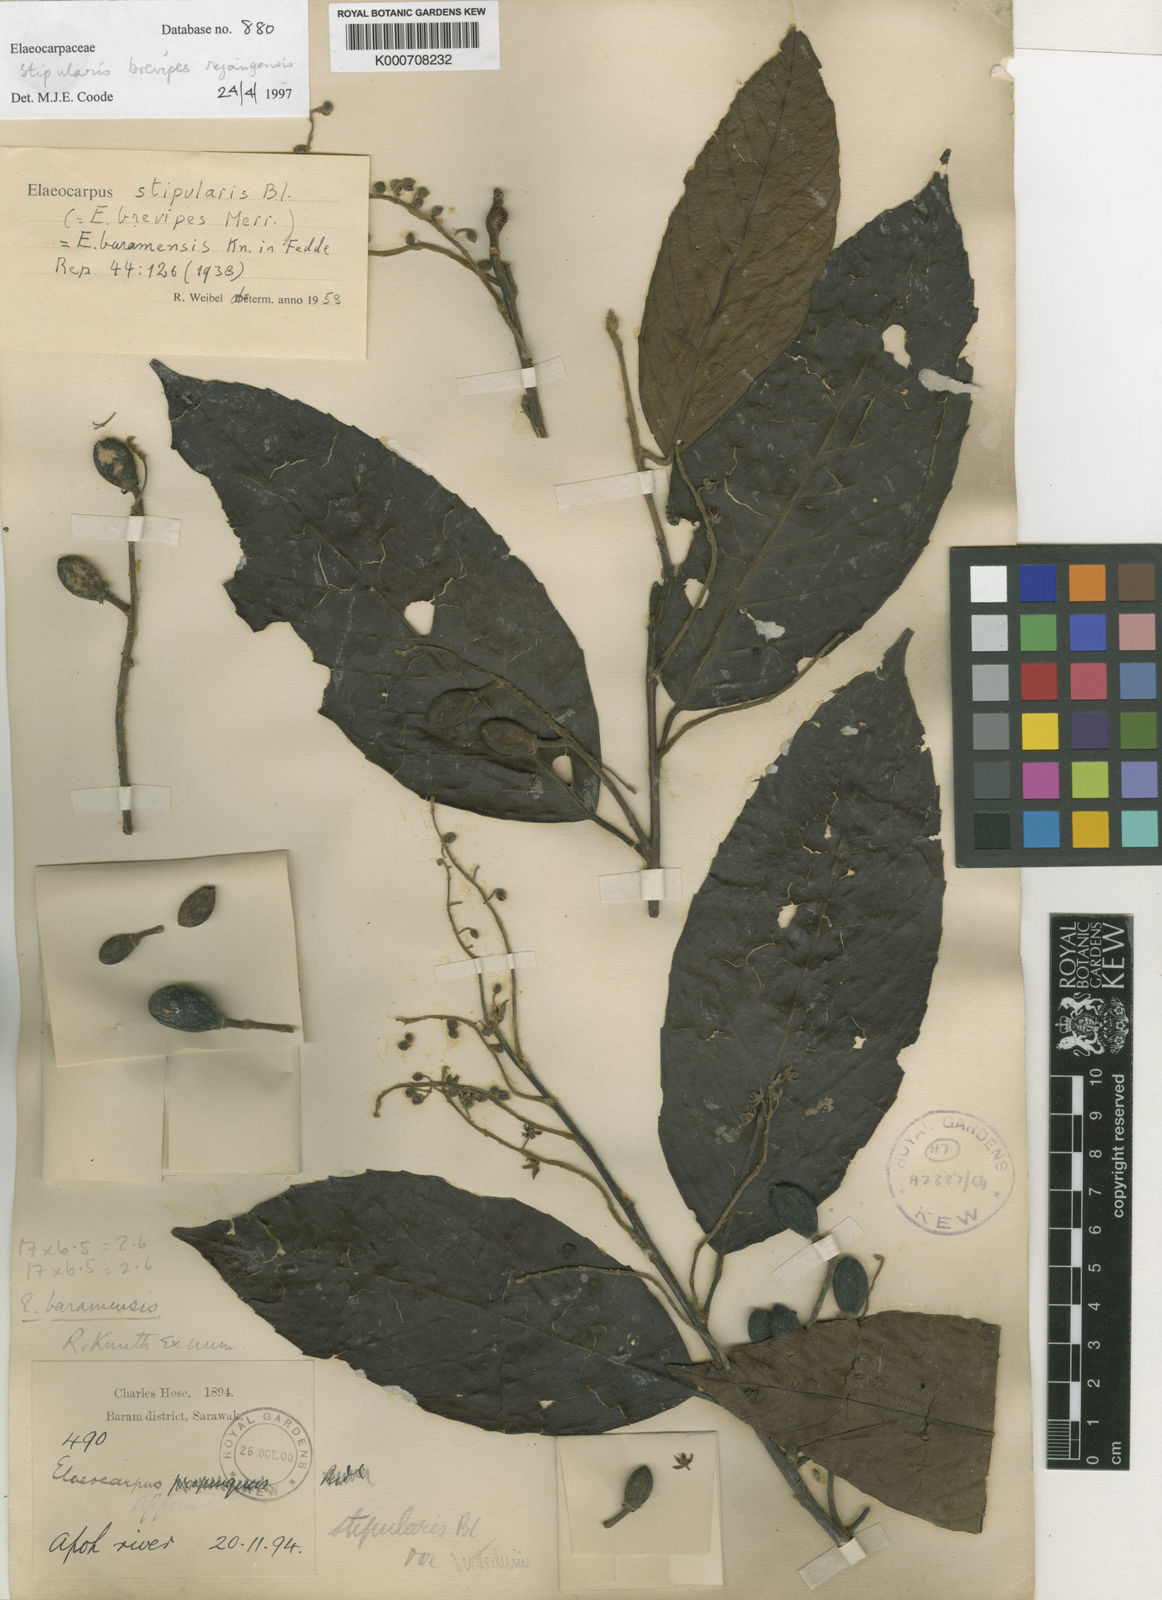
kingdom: Plantae
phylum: Tracheophyta
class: Magnoliopsida
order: Oxalidales
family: Elaeocarpaceae
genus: Elaeocarpus
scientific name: Elaeocarpus stipularis
